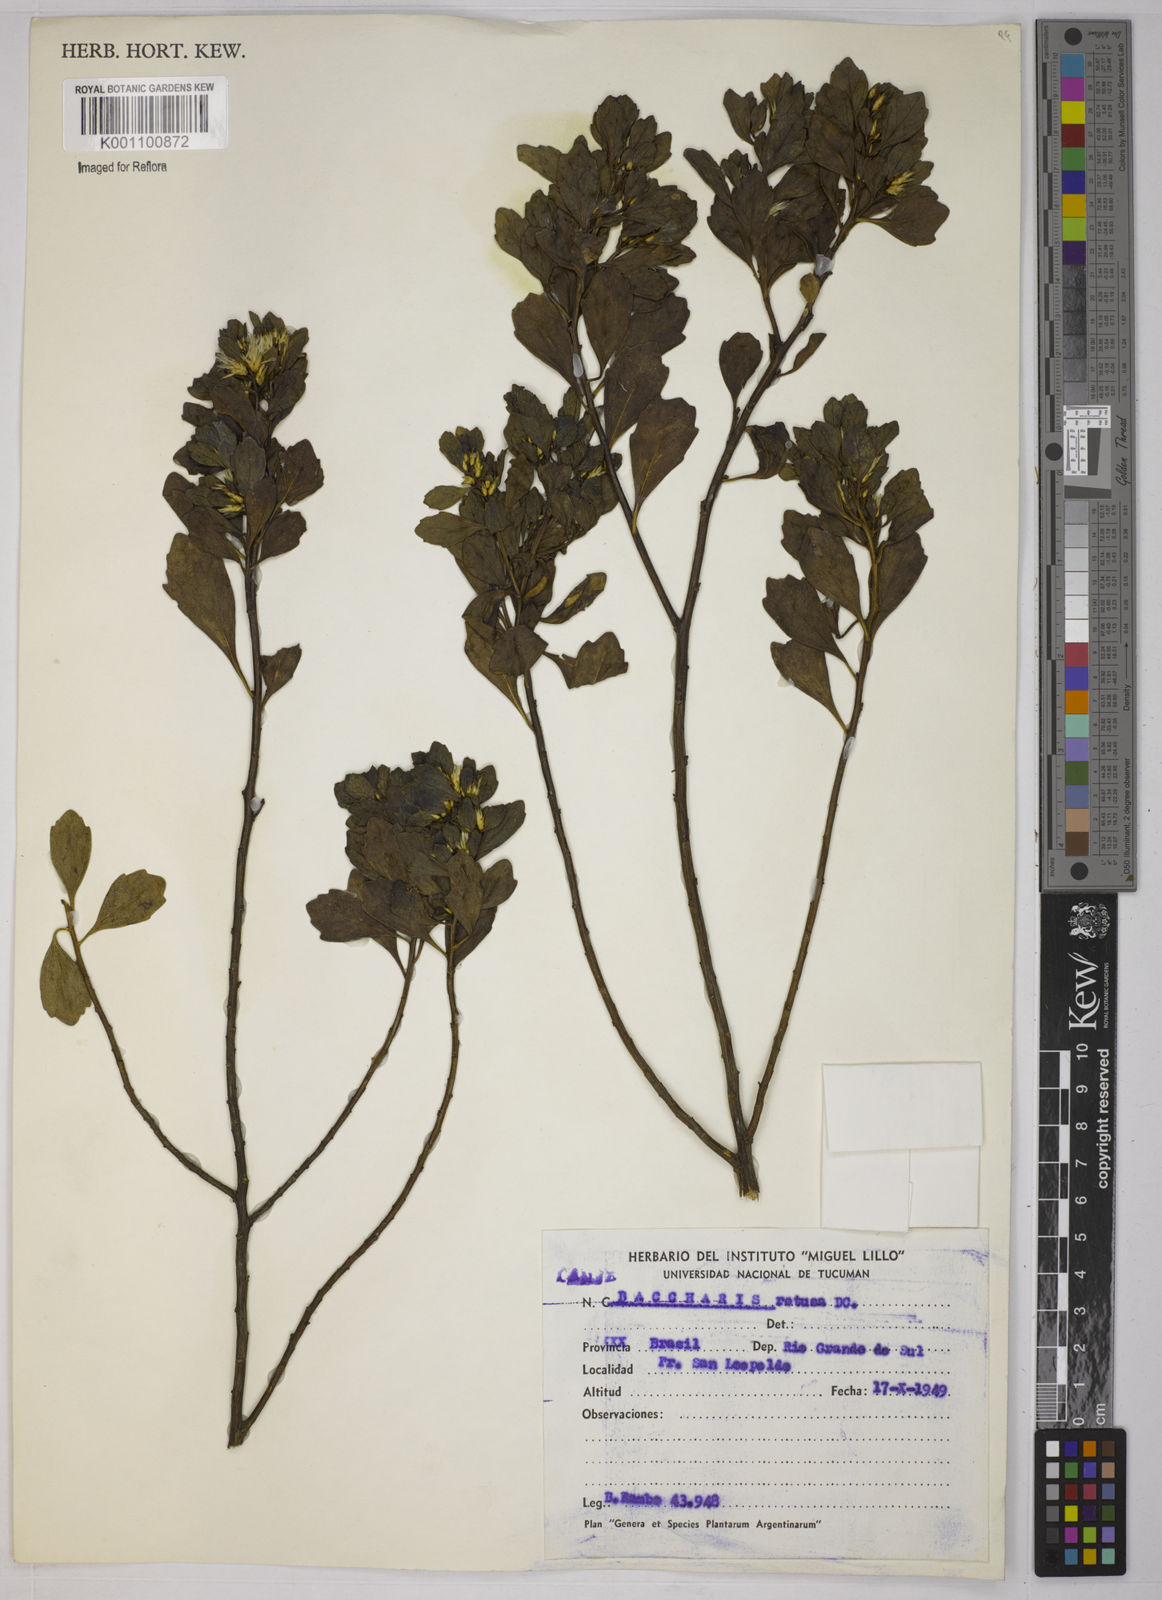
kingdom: Plantae
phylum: Tracheophyta
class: Magnoliopsida
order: Asterales
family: Asteraceae
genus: Baccharis
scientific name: Baccharis retusa
